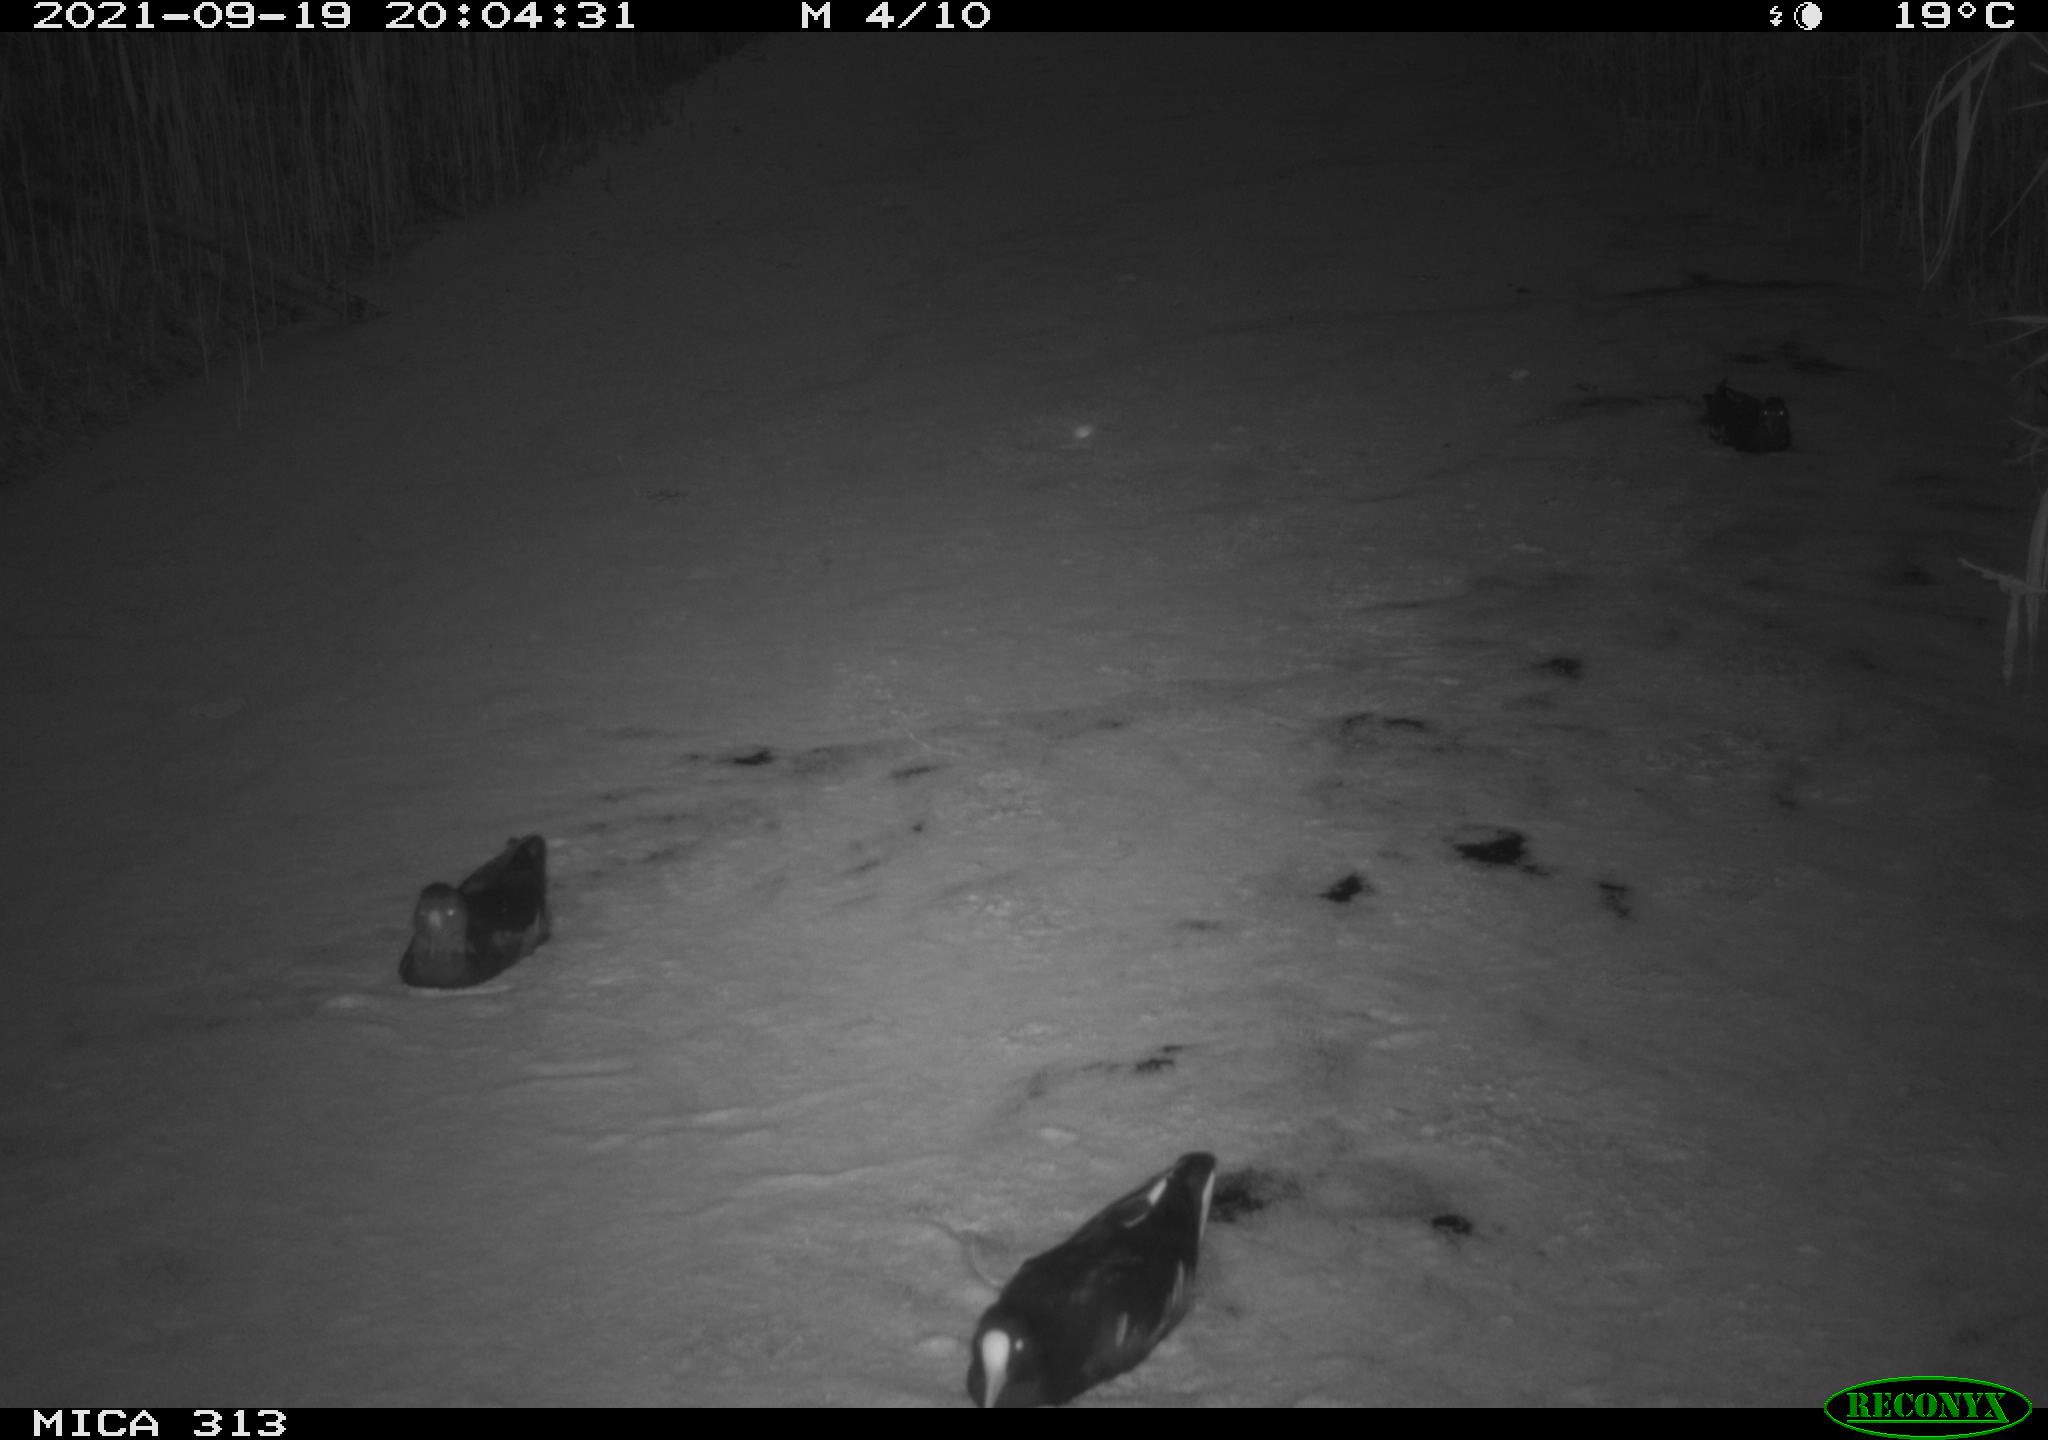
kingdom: Animalia
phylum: Chordata
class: Aves
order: Gruiformes
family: Rallidae
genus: Gallinula
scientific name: Gallinula chloropus
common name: Common moorhen
